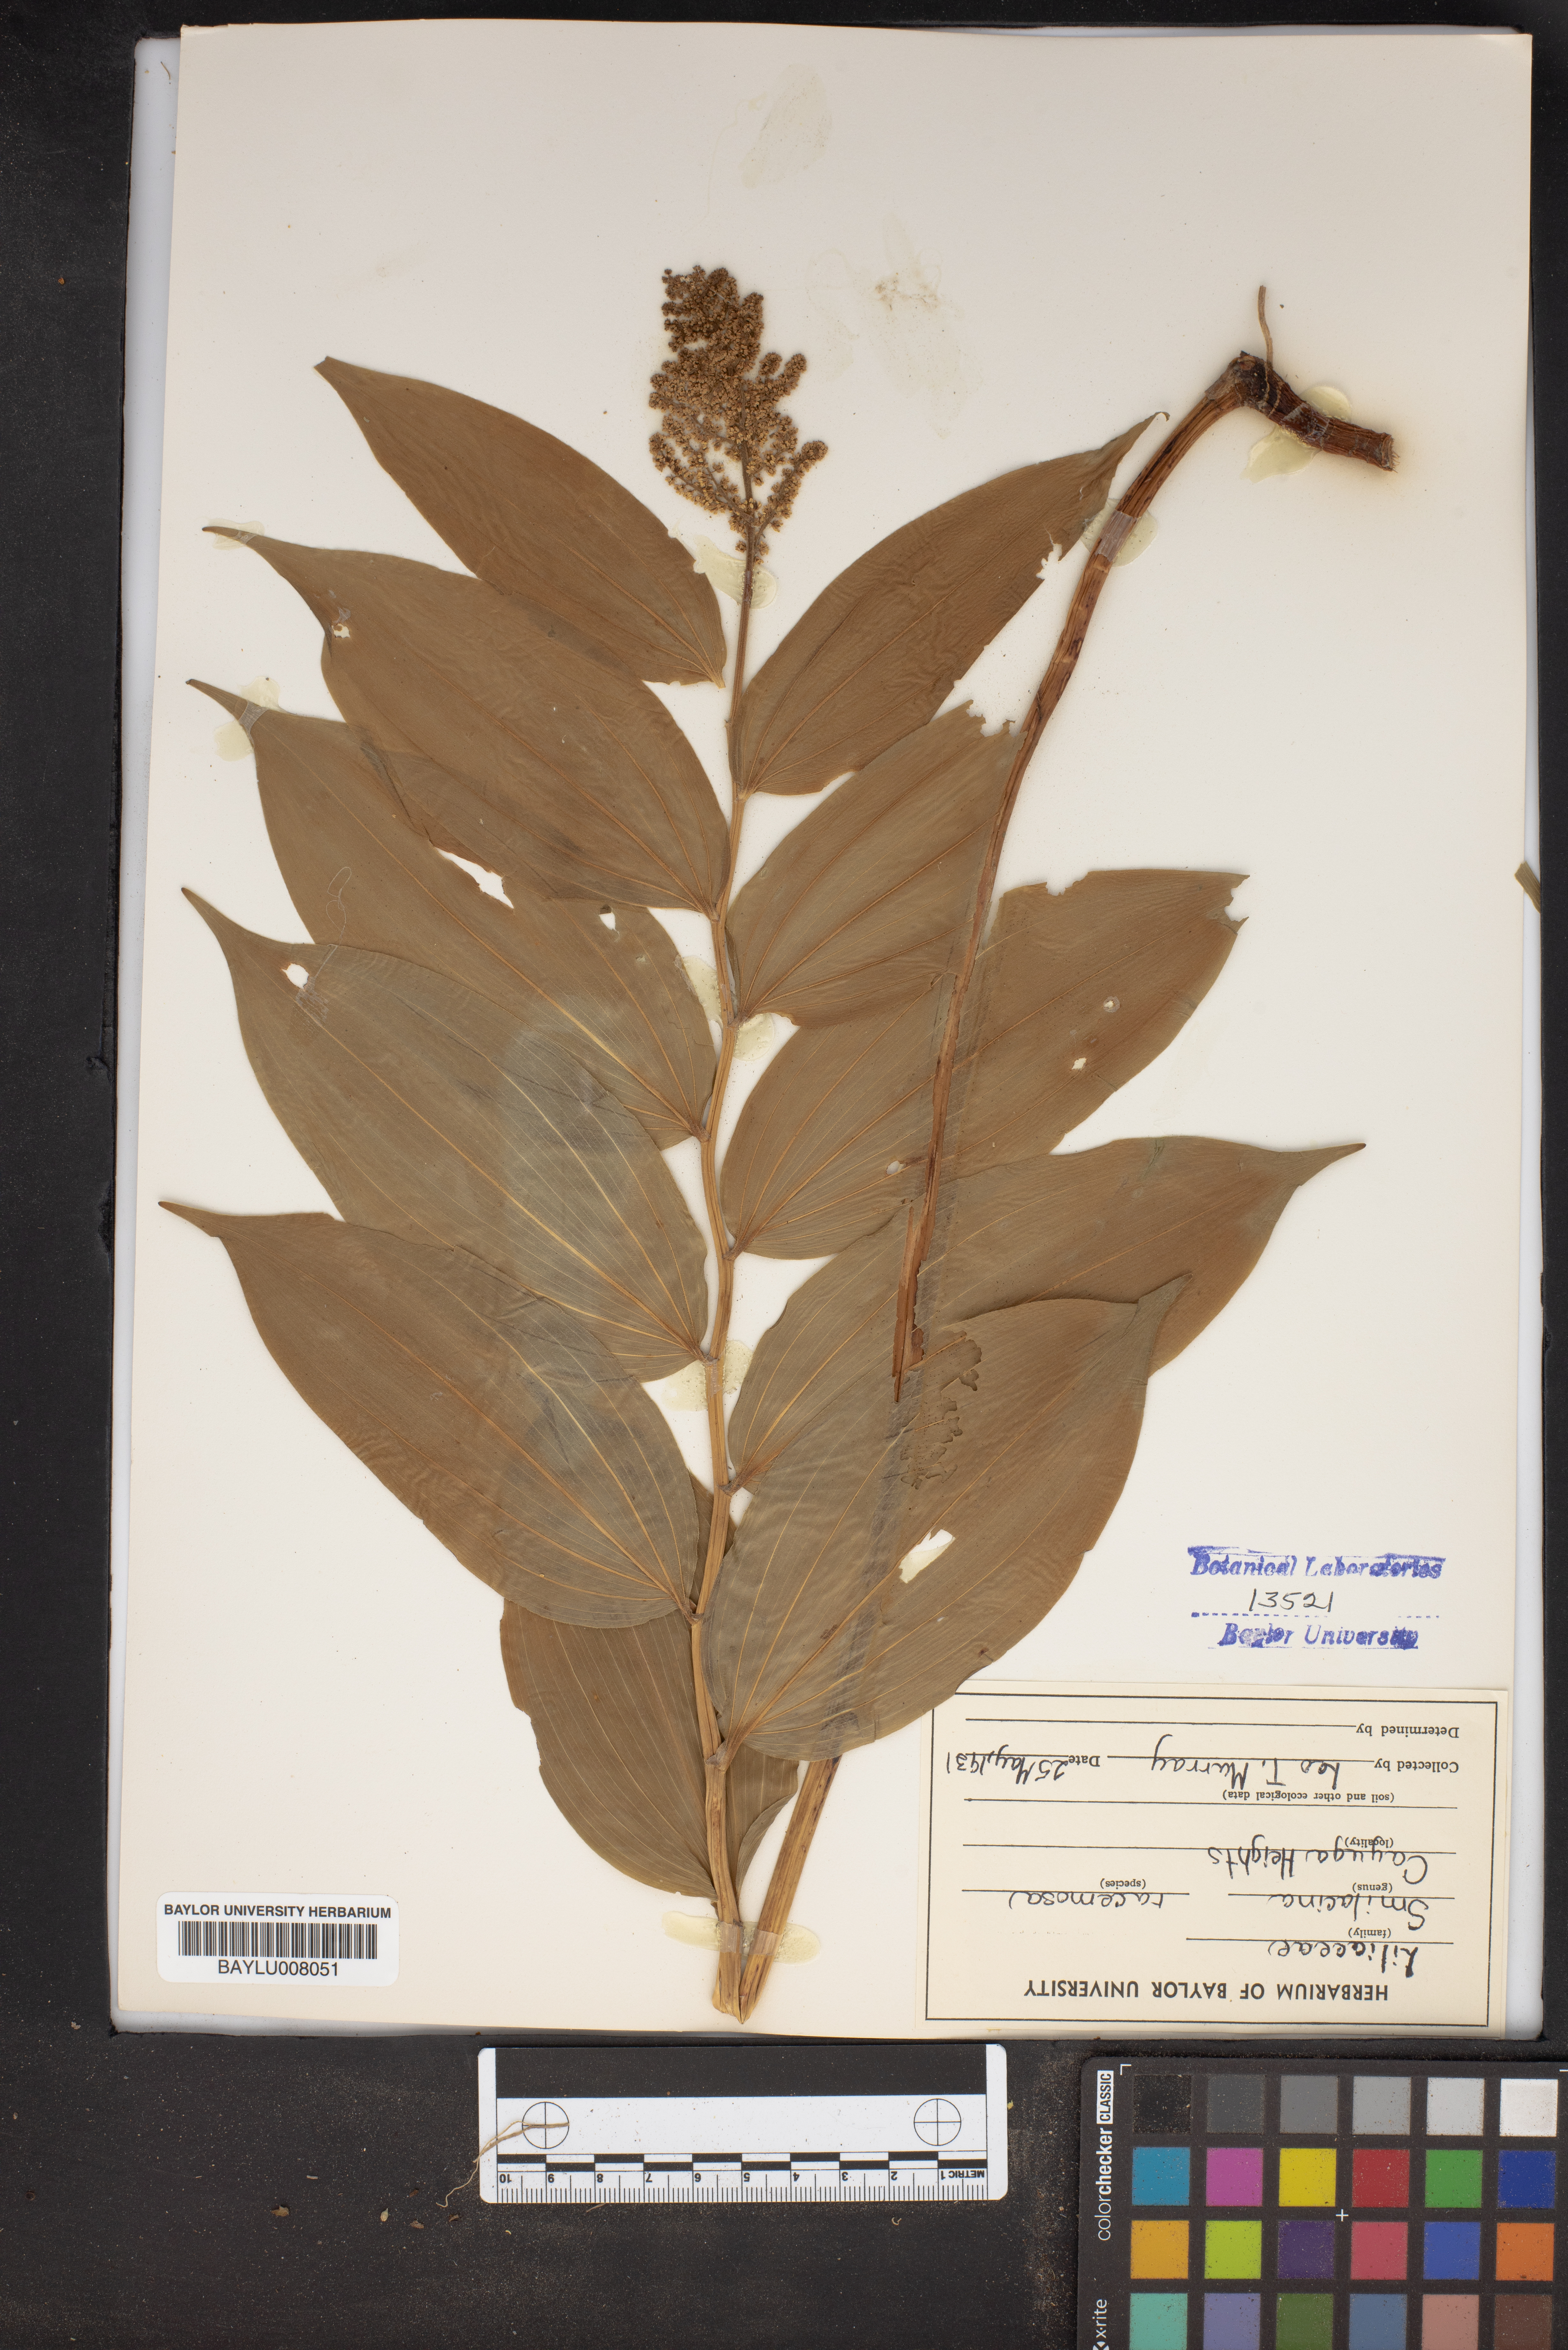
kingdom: Plantae
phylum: Tracheophyta
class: Liliopsida
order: Asparagales
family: Asparagaceae
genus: Maianthemum
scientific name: Maianthemum racemosum
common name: False spikenard
